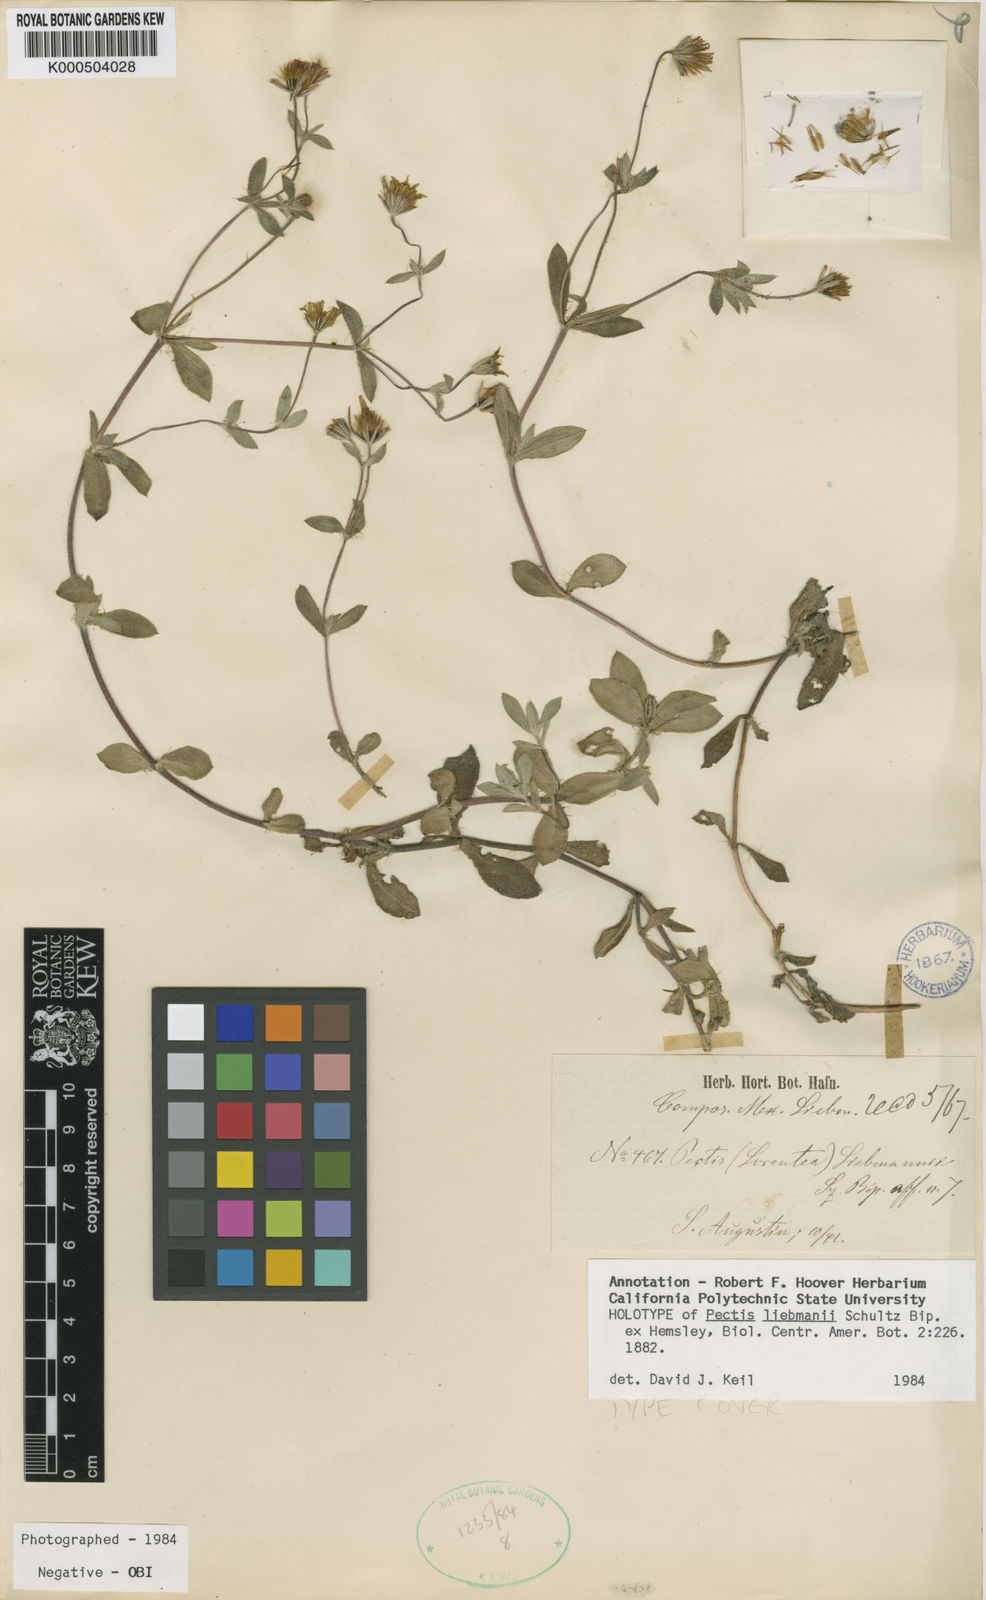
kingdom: Plantae
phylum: Tracheophyta
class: Magnoliopsida
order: Asterales
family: Asteraceae
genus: Pectis
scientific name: Pectis liebmannii
